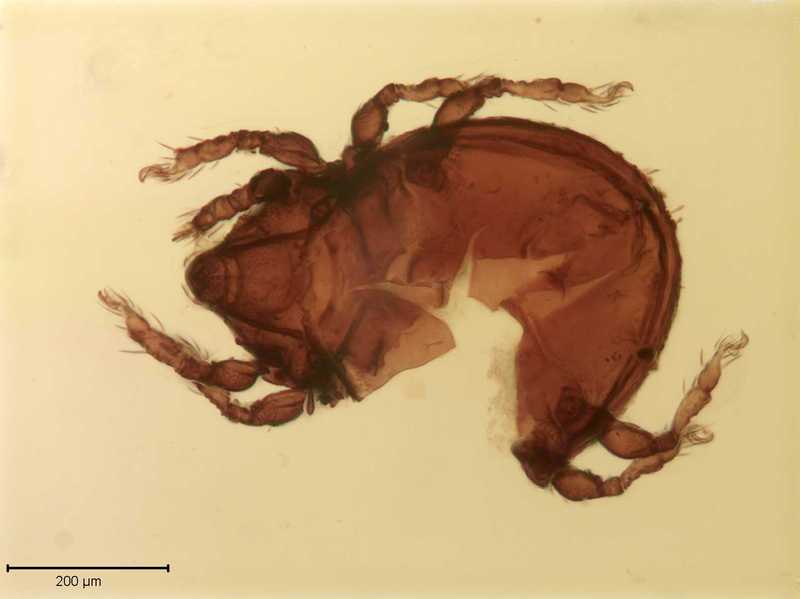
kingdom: Animalia
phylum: Arthropoda
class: Arachnida
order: Sarcoptiformes
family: Scutoverticidae
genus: Scutovertex
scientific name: Scutovertex minutus
